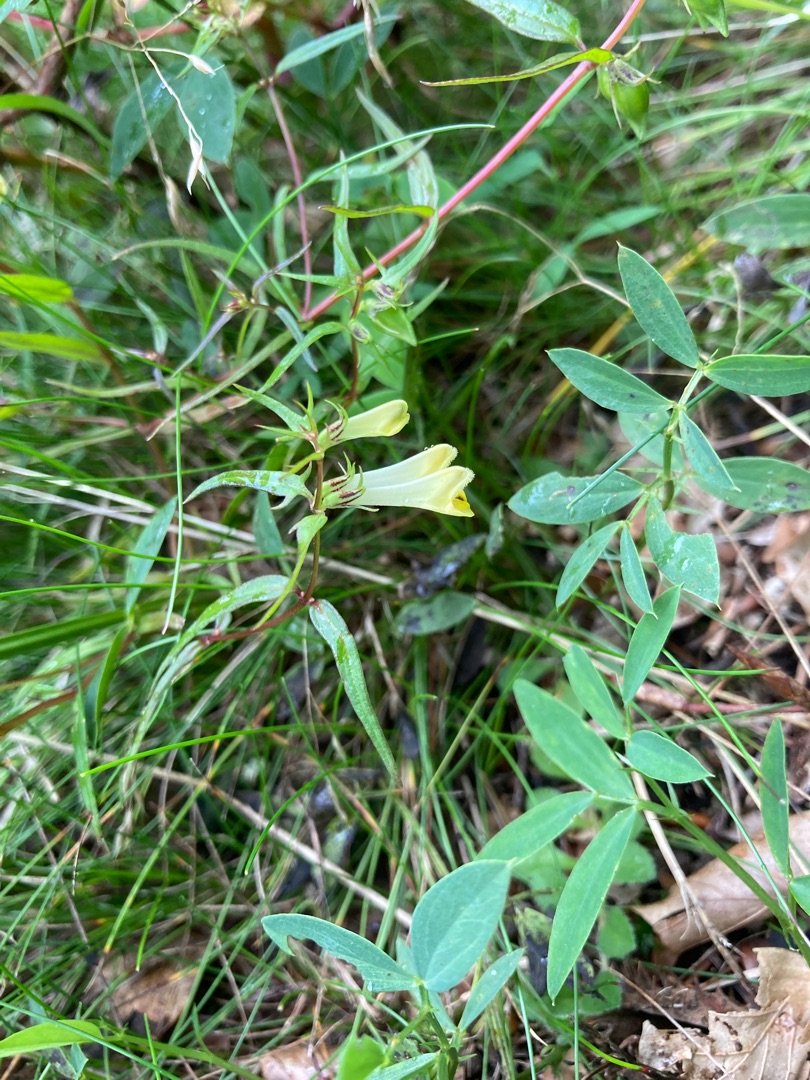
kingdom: Plantae
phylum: Tracheophyta
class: Magnoliopsida
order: Lamiales
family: Orobanchaceae
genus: Melampyrum
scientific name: Melampyrum pratense
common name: Almindelig kohvede
